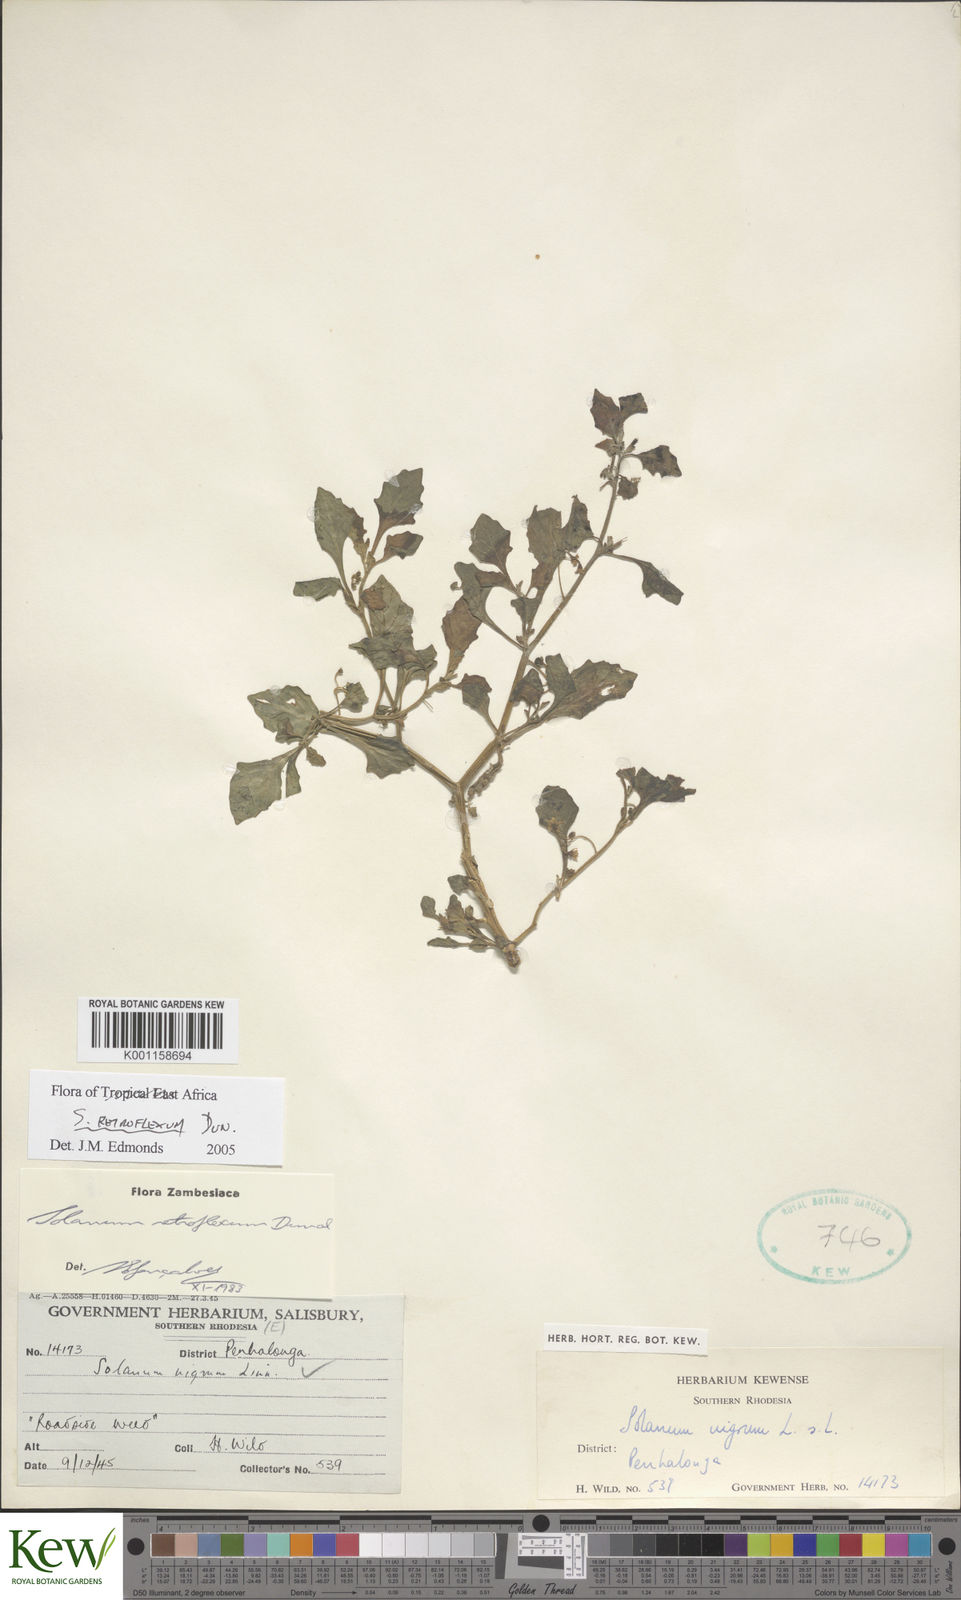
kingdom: Plantae
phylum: Tracheophyta
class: Magnoliopsida
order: Solanales
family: Solanaceae
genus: Solanum
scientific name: Solanum retroflexum
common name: Wonderberry
